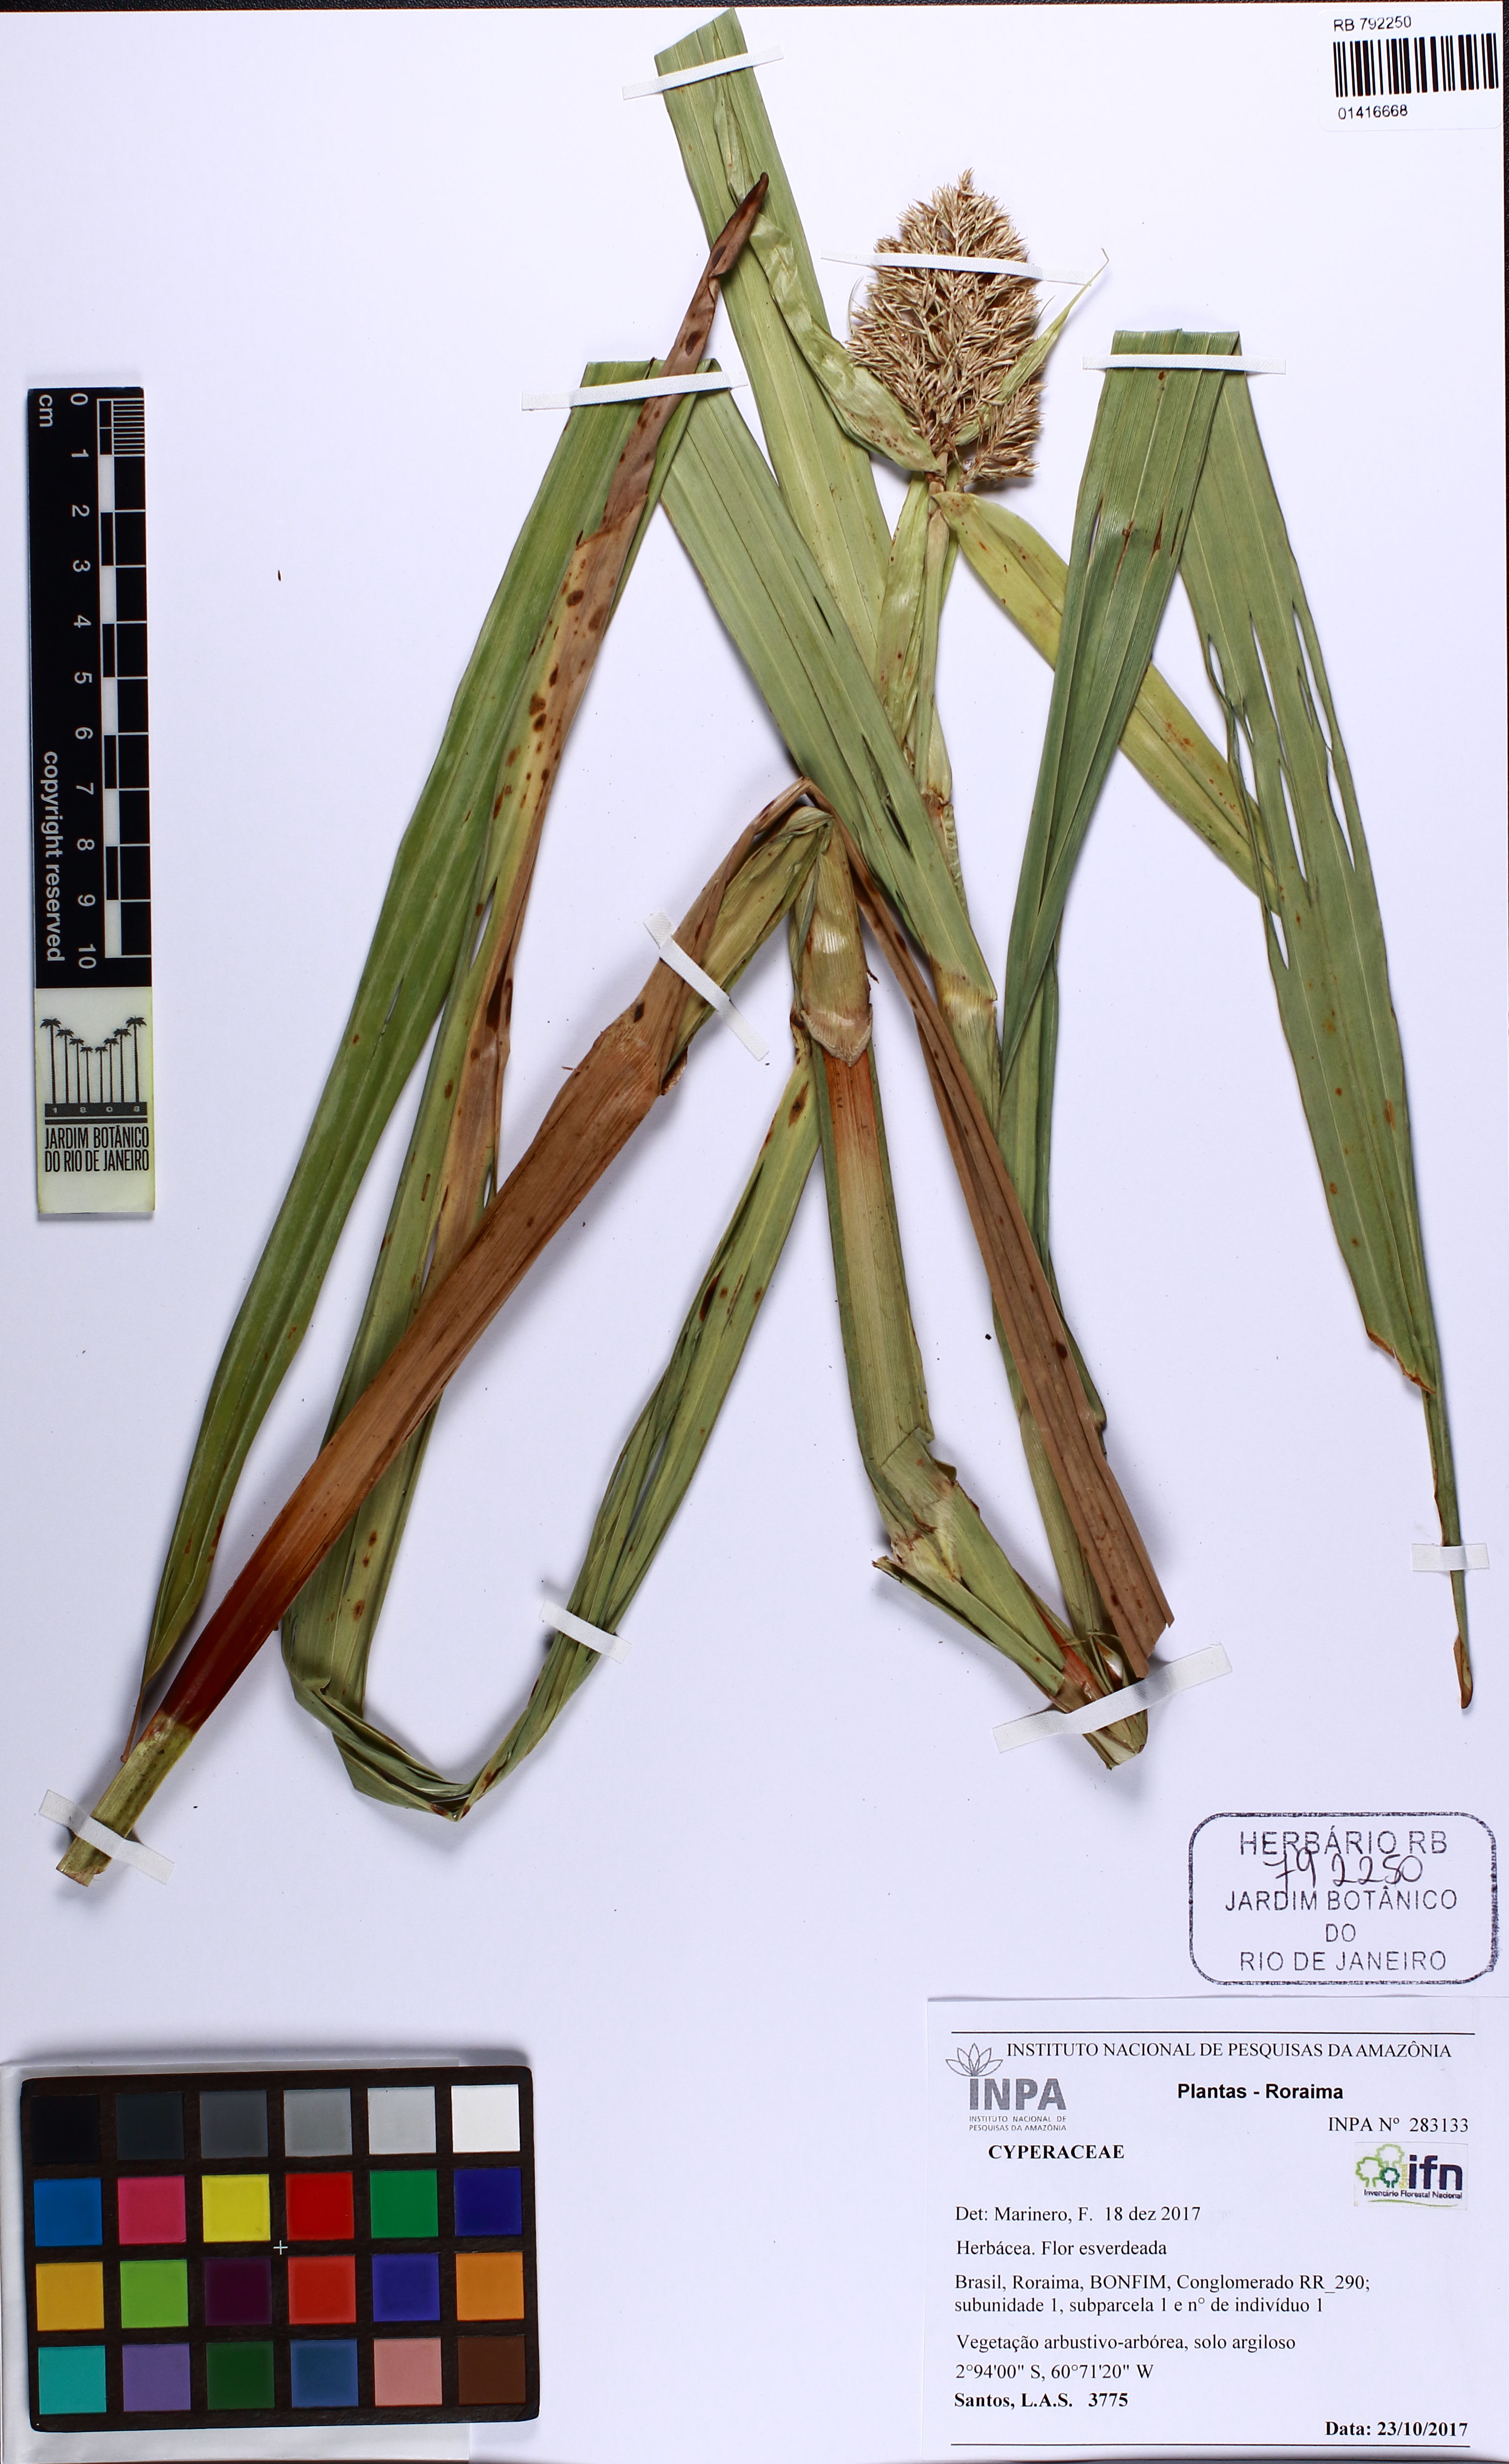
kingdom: Plantae
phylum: Tracheophyta
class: Liliopsida
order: Poales
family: Cyperaceae
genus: Scleria
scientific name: Scleria
